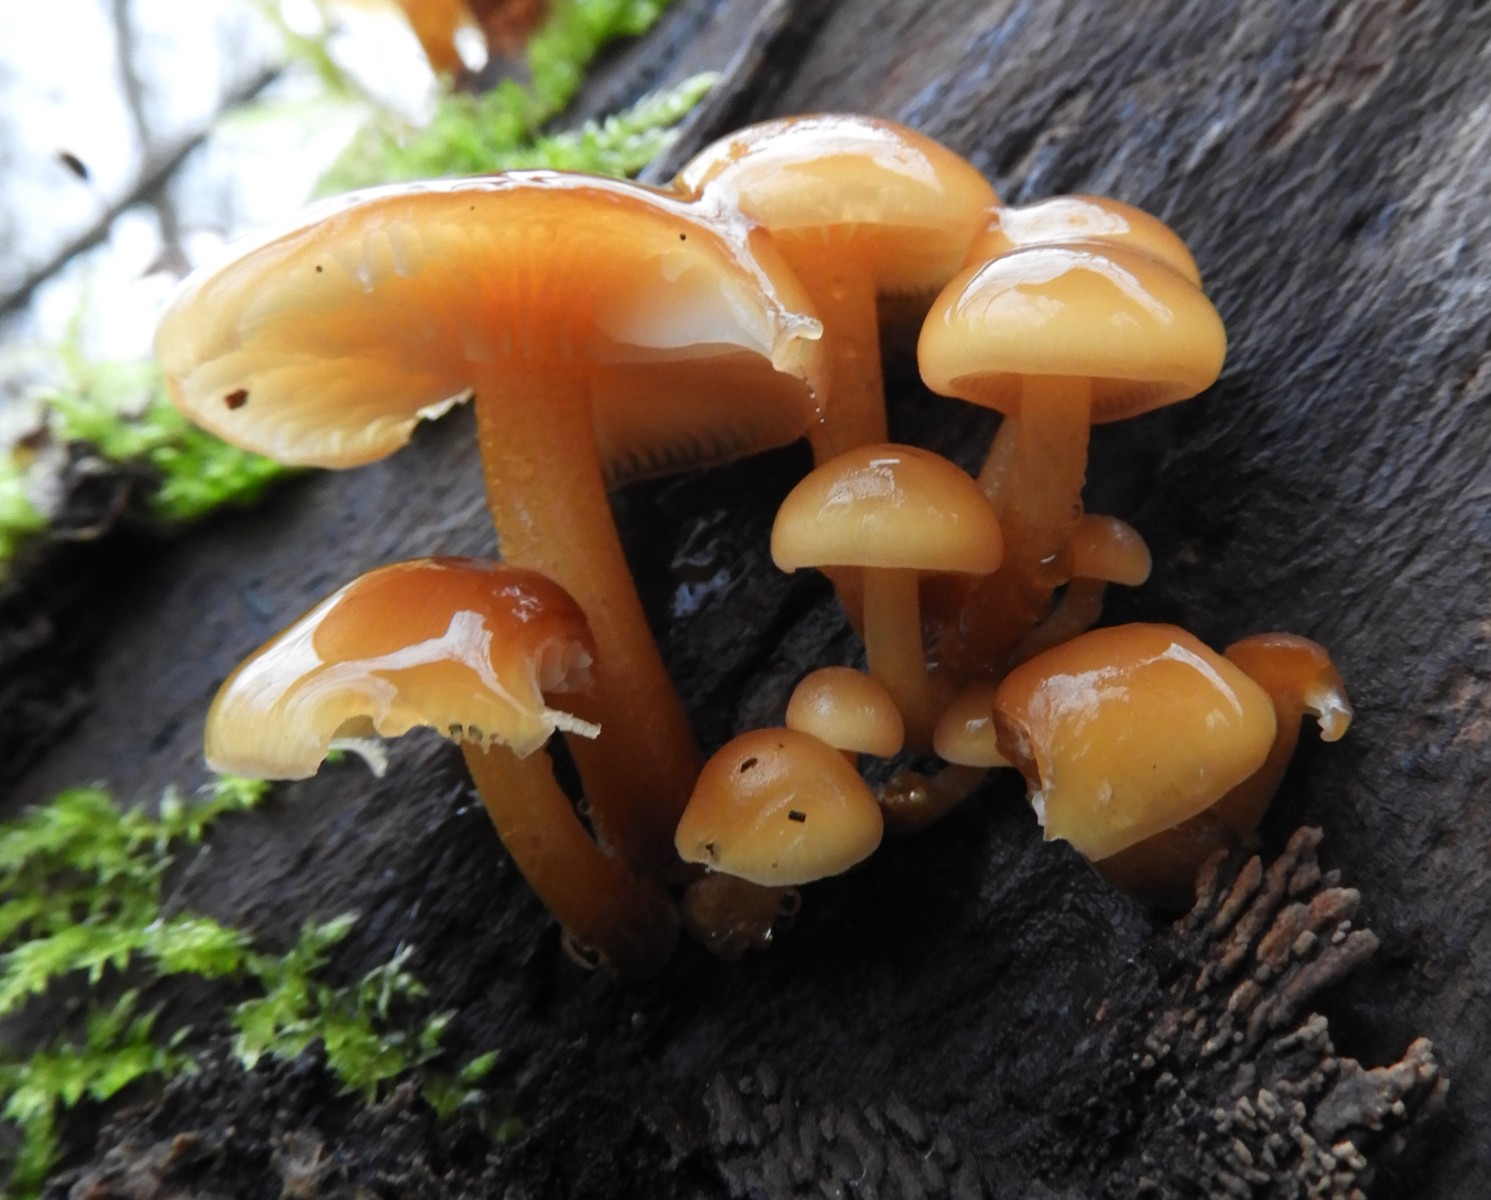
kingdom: Fungi
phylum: Basidiomycota
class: Agaricomycetes
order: Agaricales
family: Physalacriaceae
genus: Flammulina
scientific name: Flammulina
